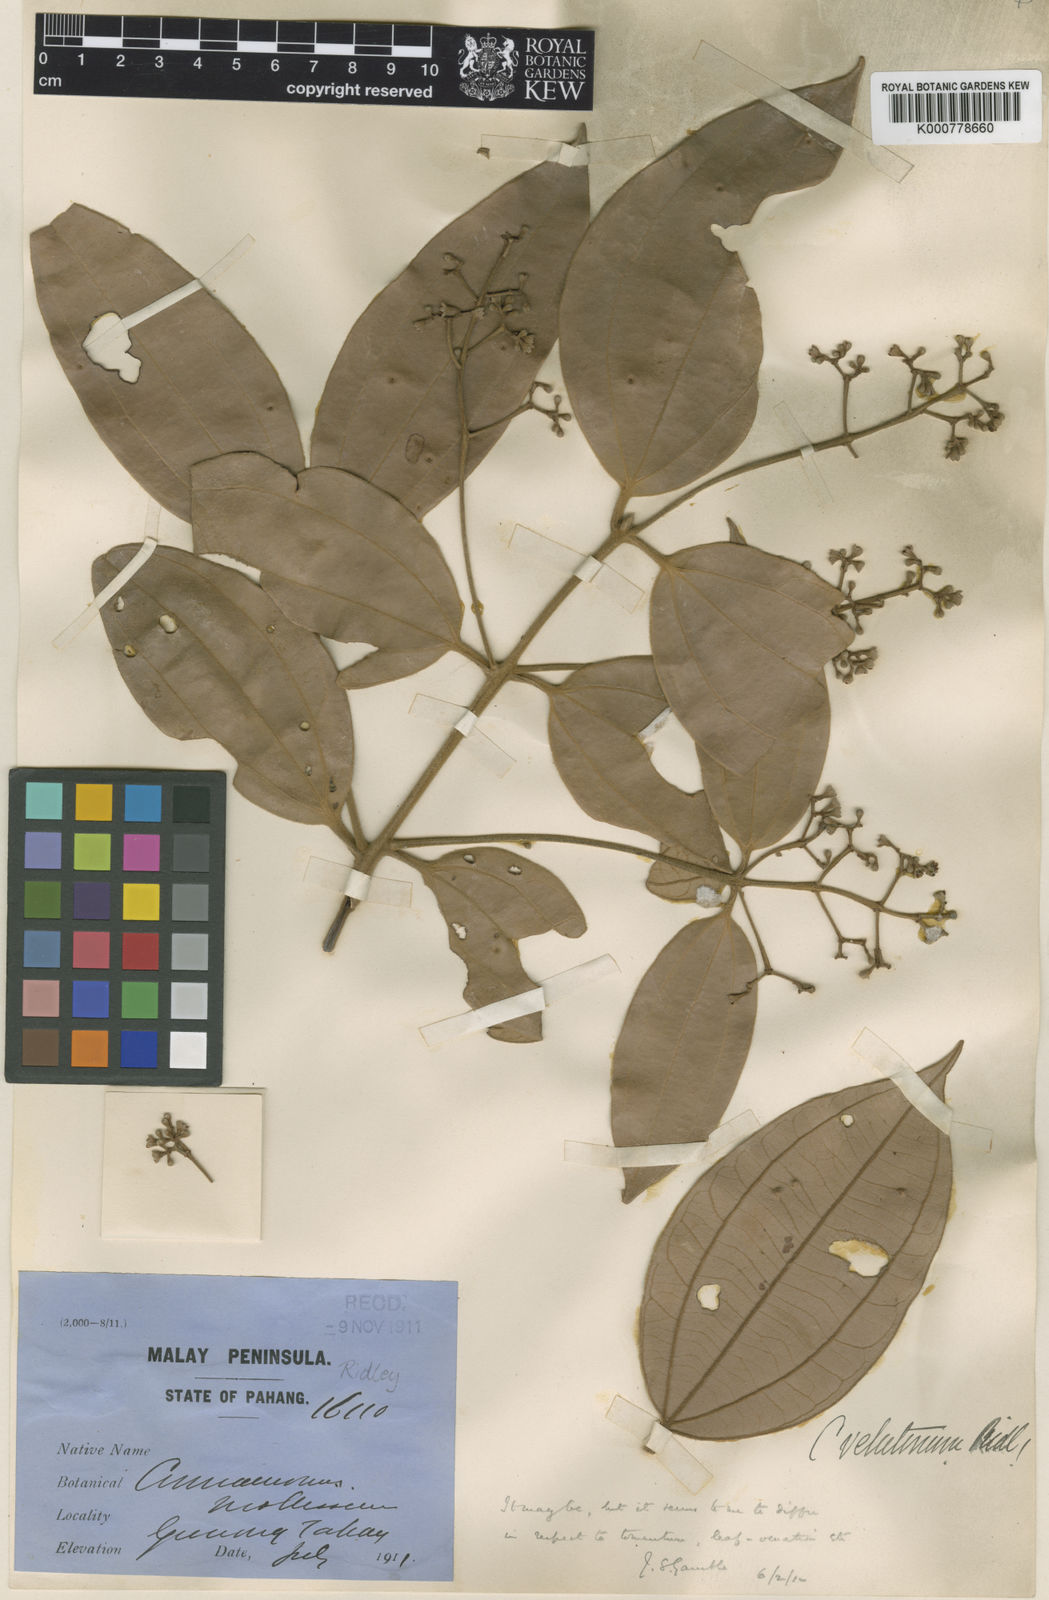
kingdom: Plantae
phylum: Tracheophyta
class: Magnoliopsida
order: Laurales
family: Lauraceae
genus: Cinnamomum
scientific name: Cinnamomum scortechinii
